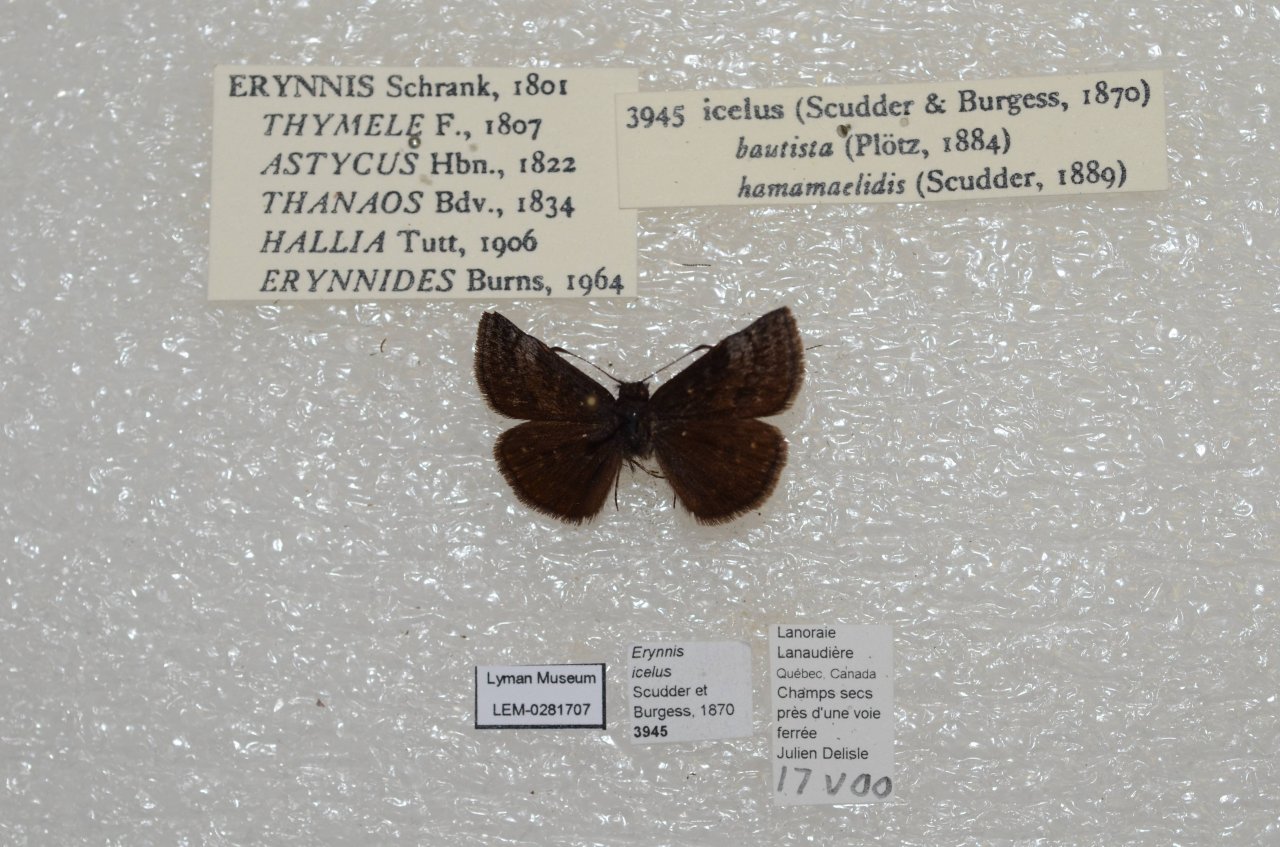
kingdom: Animalia
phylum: Arthropoda
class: Insecta
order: Lepidoptera
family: Hesperiidae
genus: Erynnis
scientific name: Erynnis icelus
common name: Dreamy Duskywing
